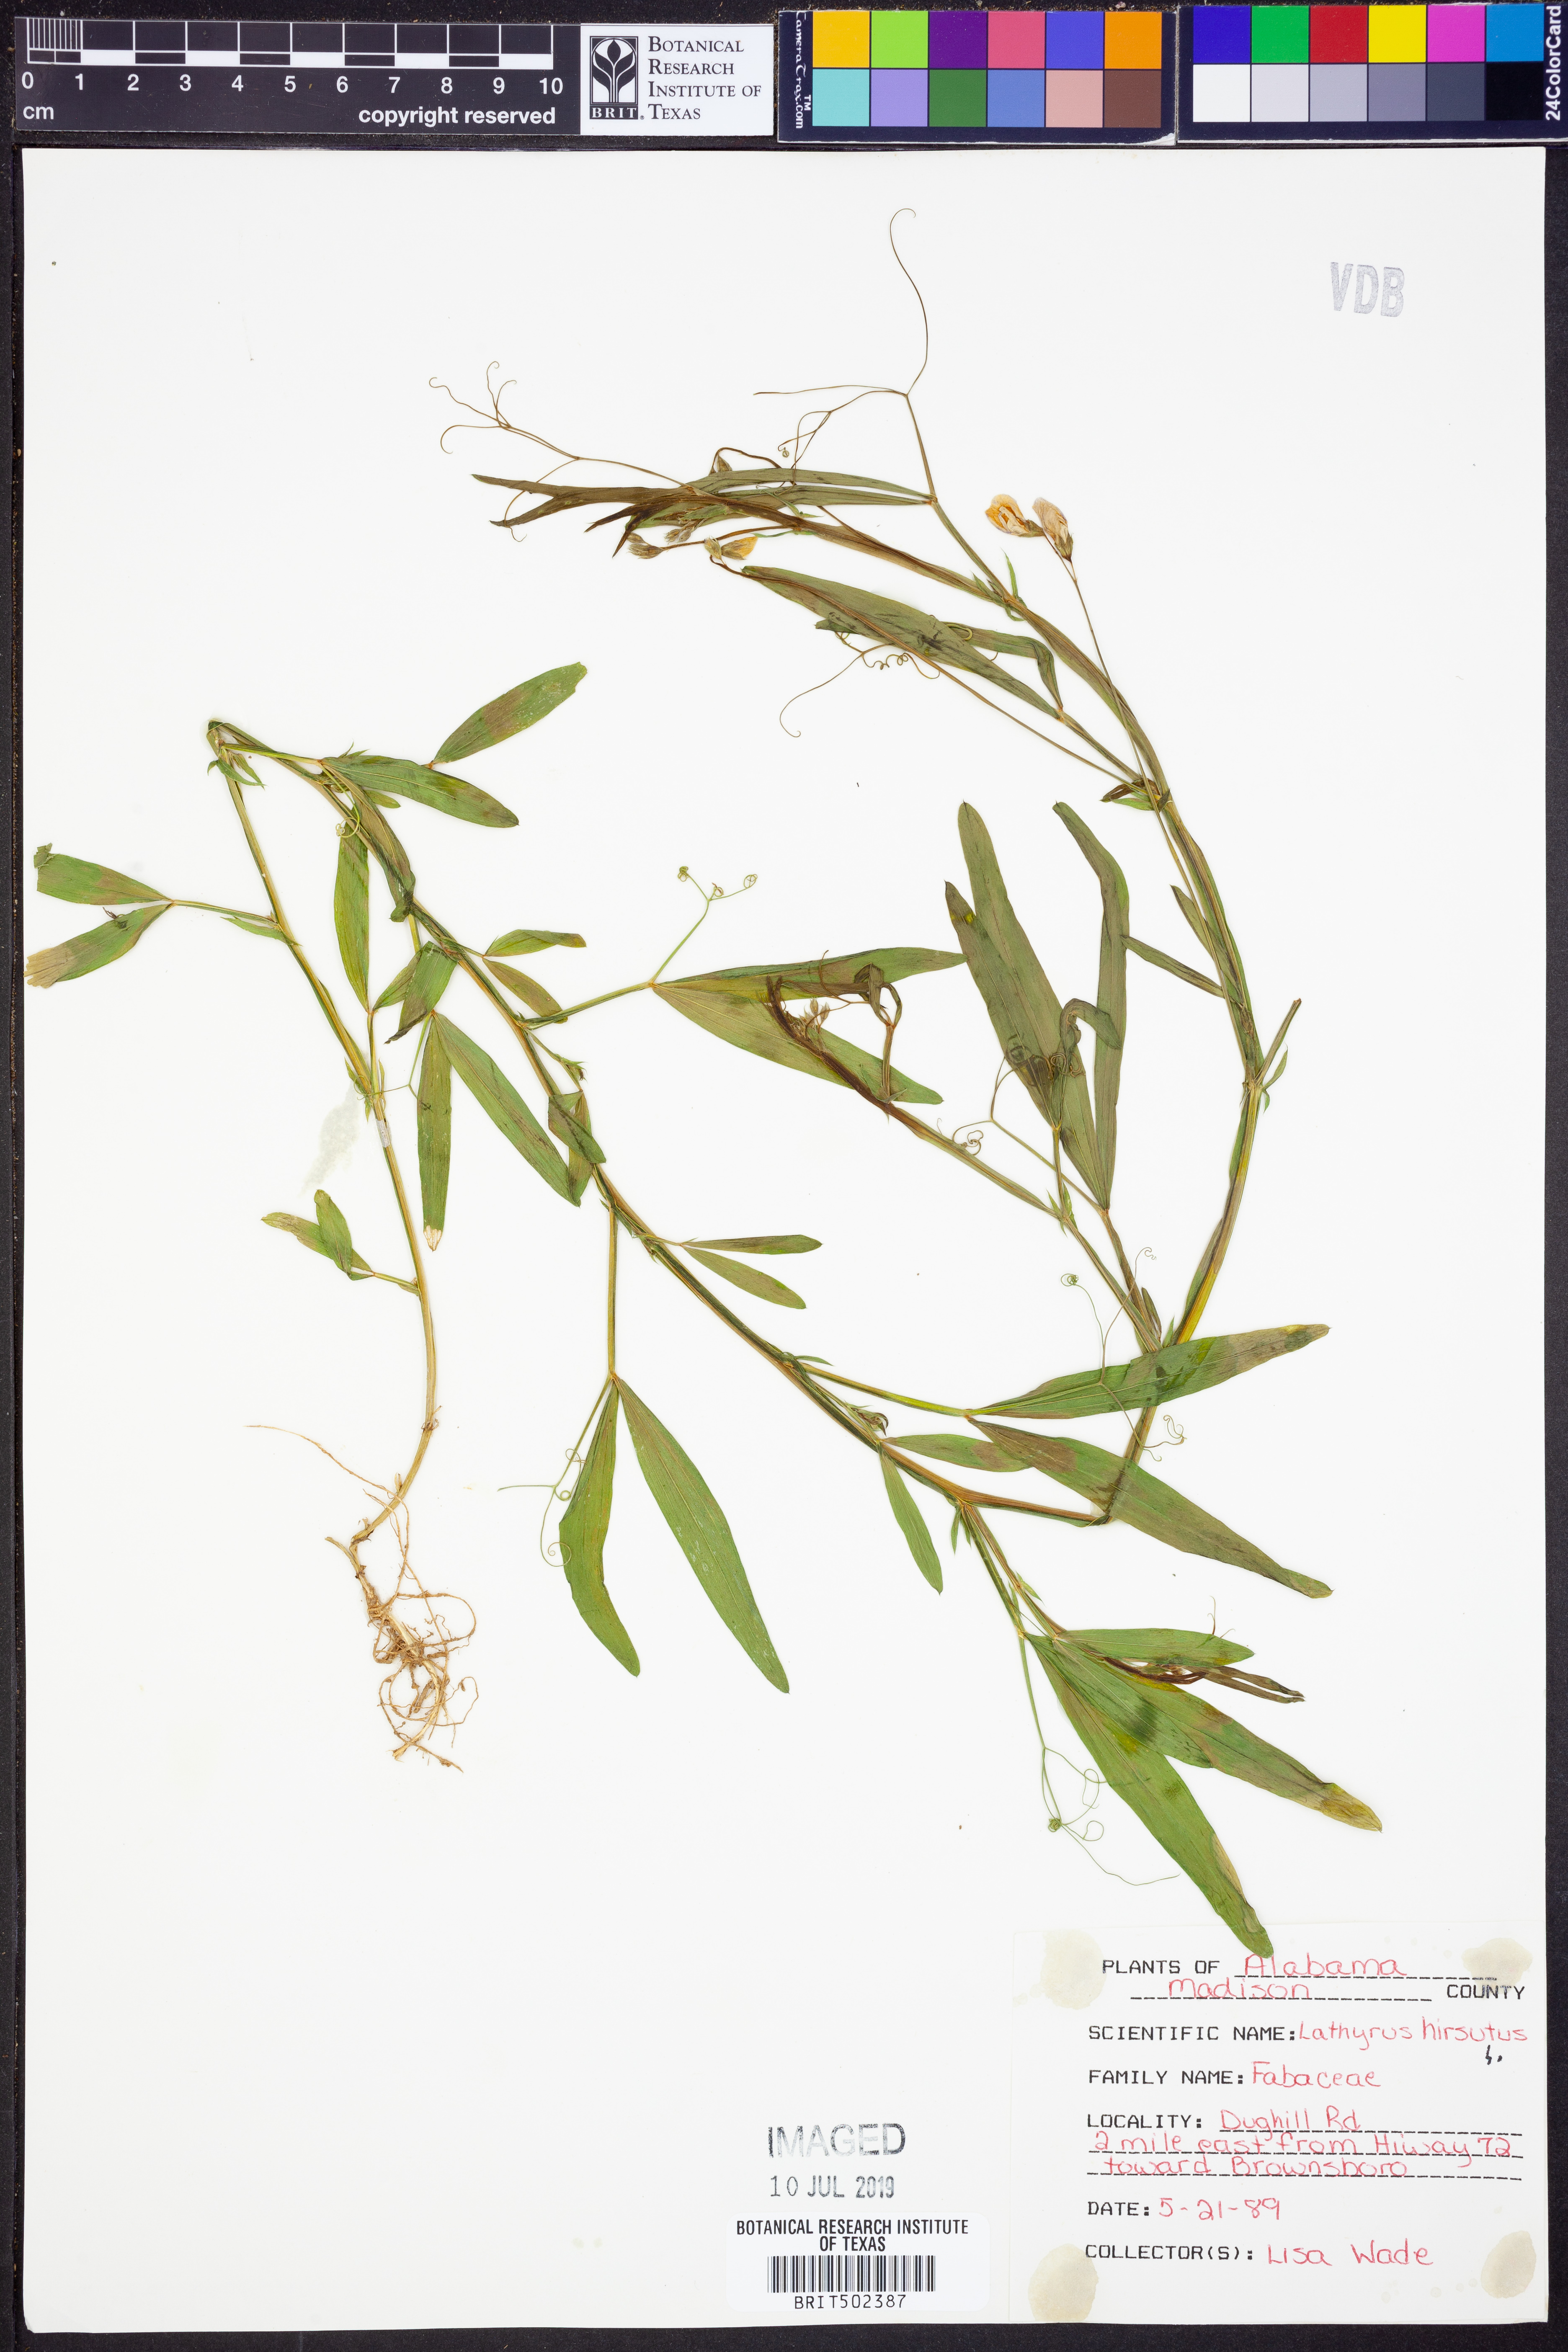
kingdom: Plantae
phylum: Tracheophyta
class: Magnoliopsida
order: Fabales
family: Fabaceae
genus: Lathyrus
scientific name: Lathyrus hirsutus
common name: Hairy vetchling
